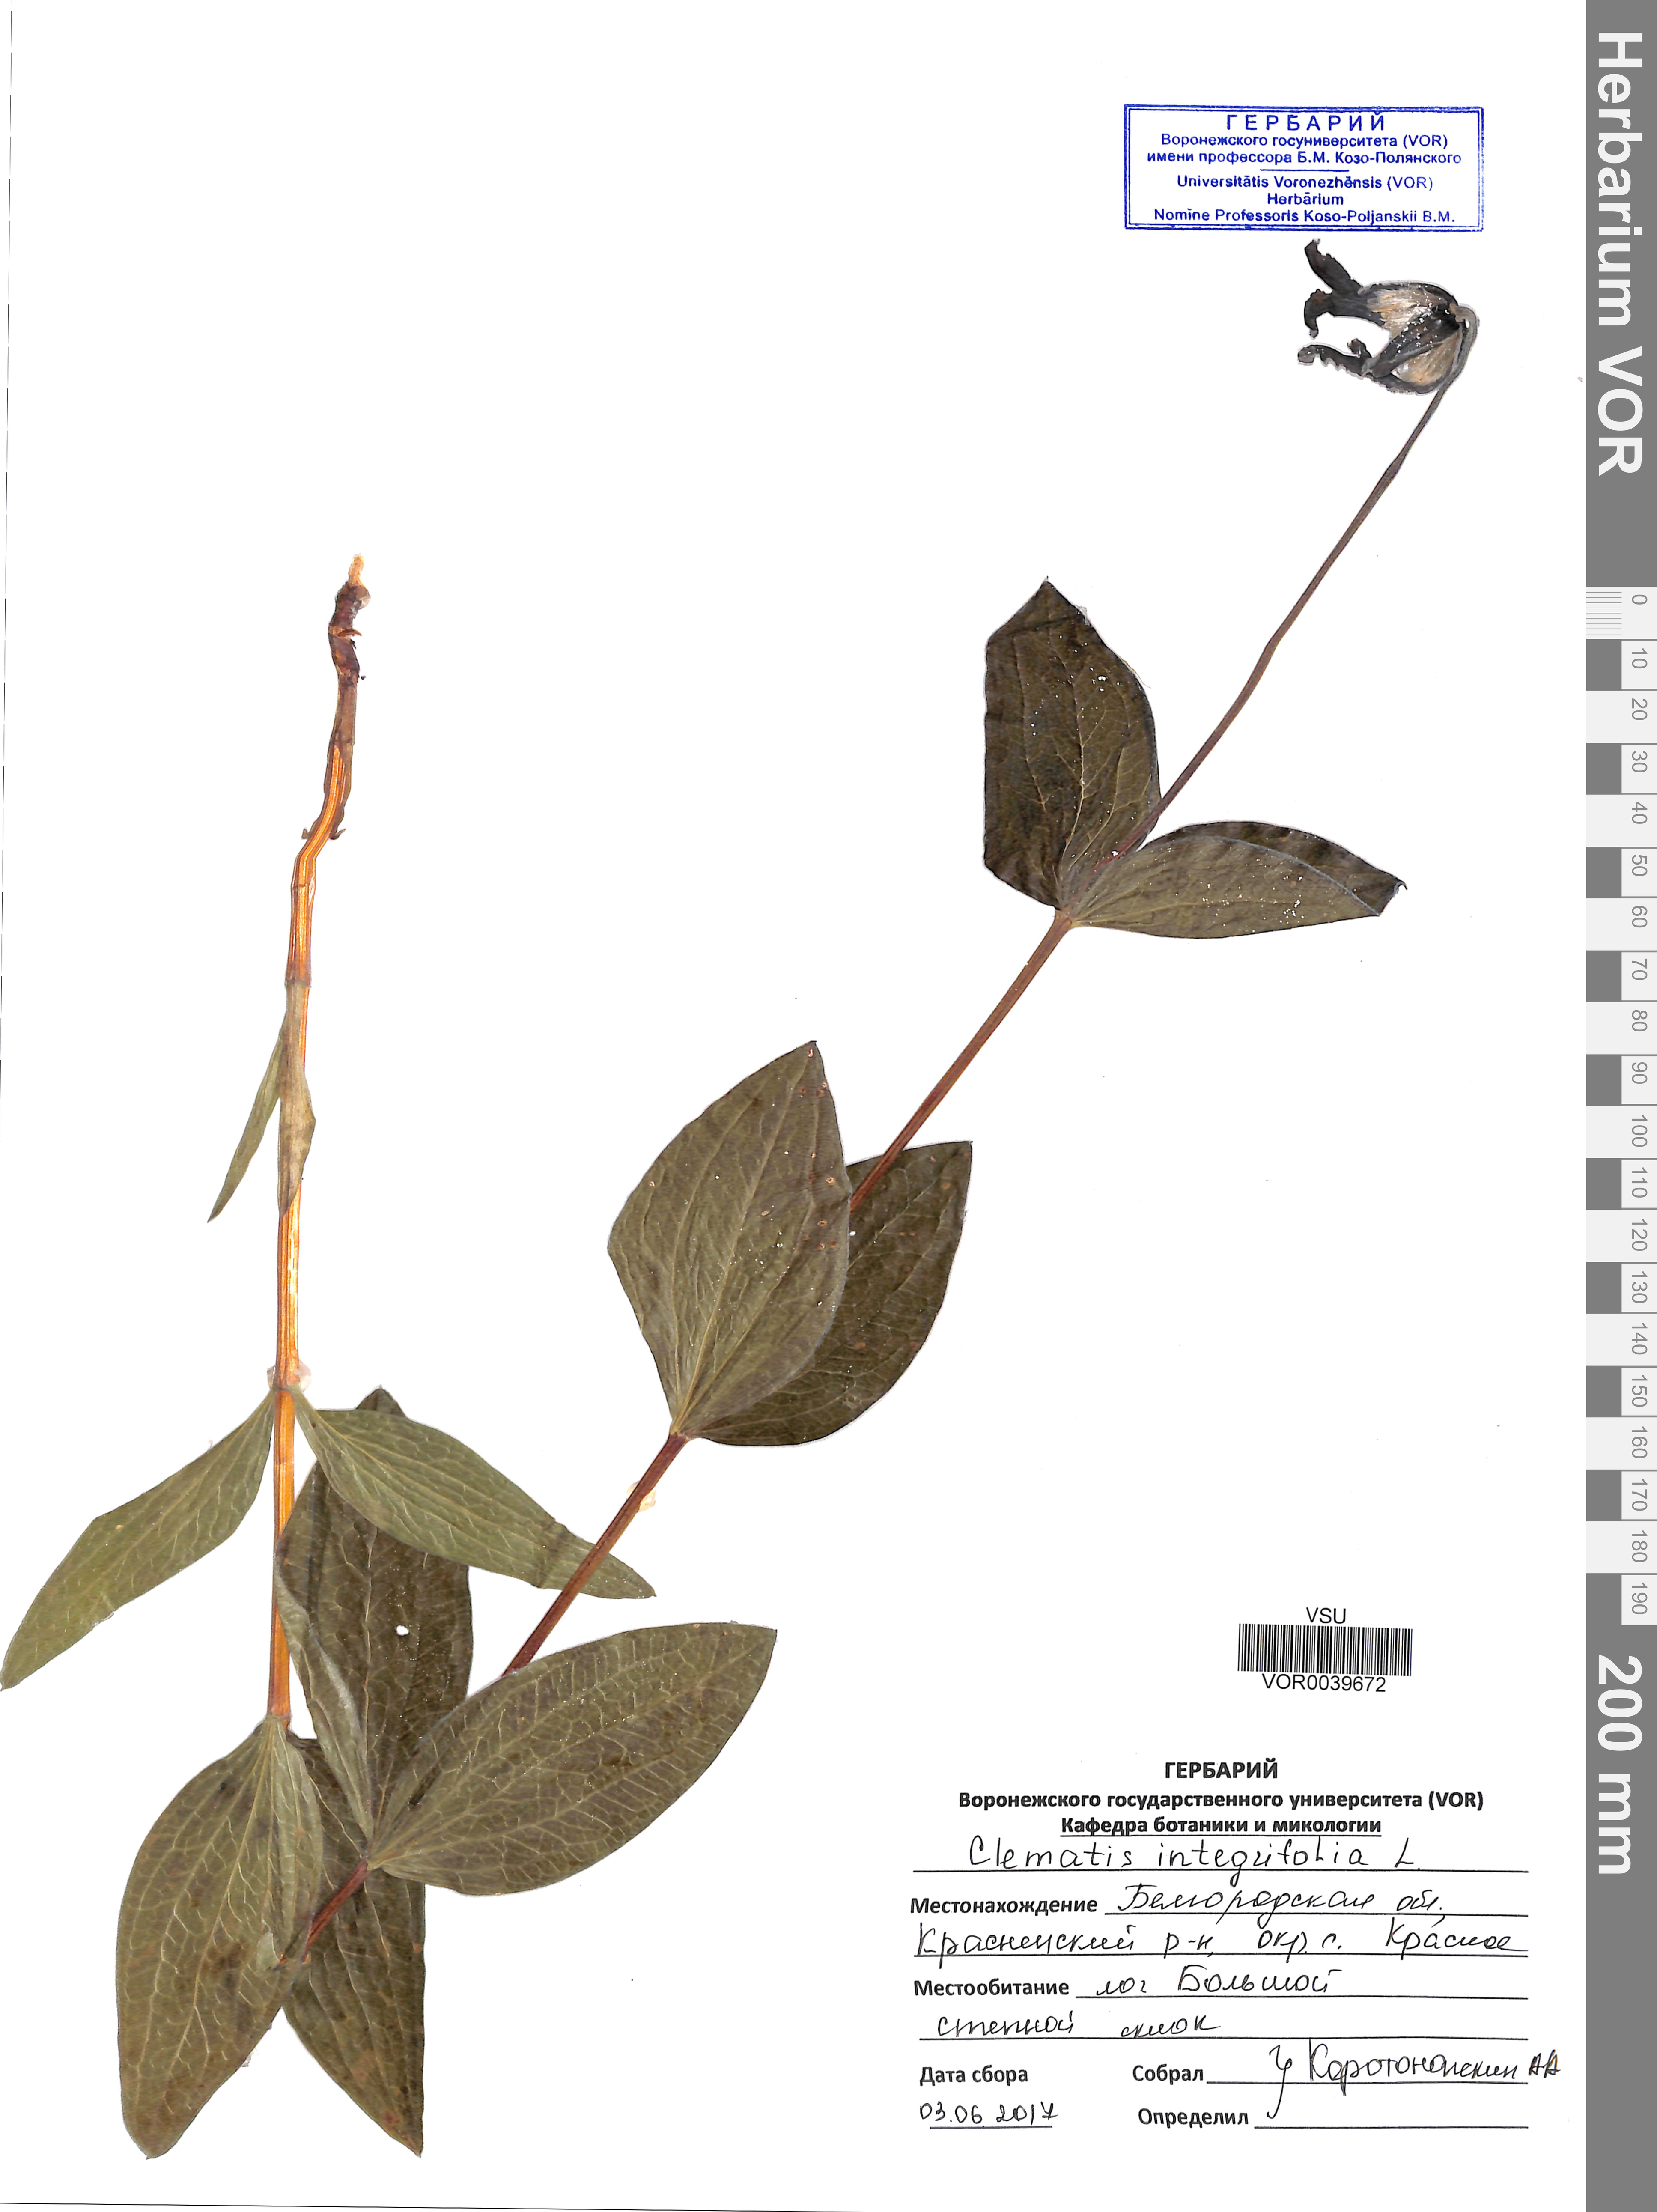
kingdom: Plantae
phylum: Tracheophyta
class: Magnoliopsida
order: Ranunculales
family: Ranunculaceae
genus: Clematis
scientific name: Clematis integrifolia
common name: Solitary clematis
